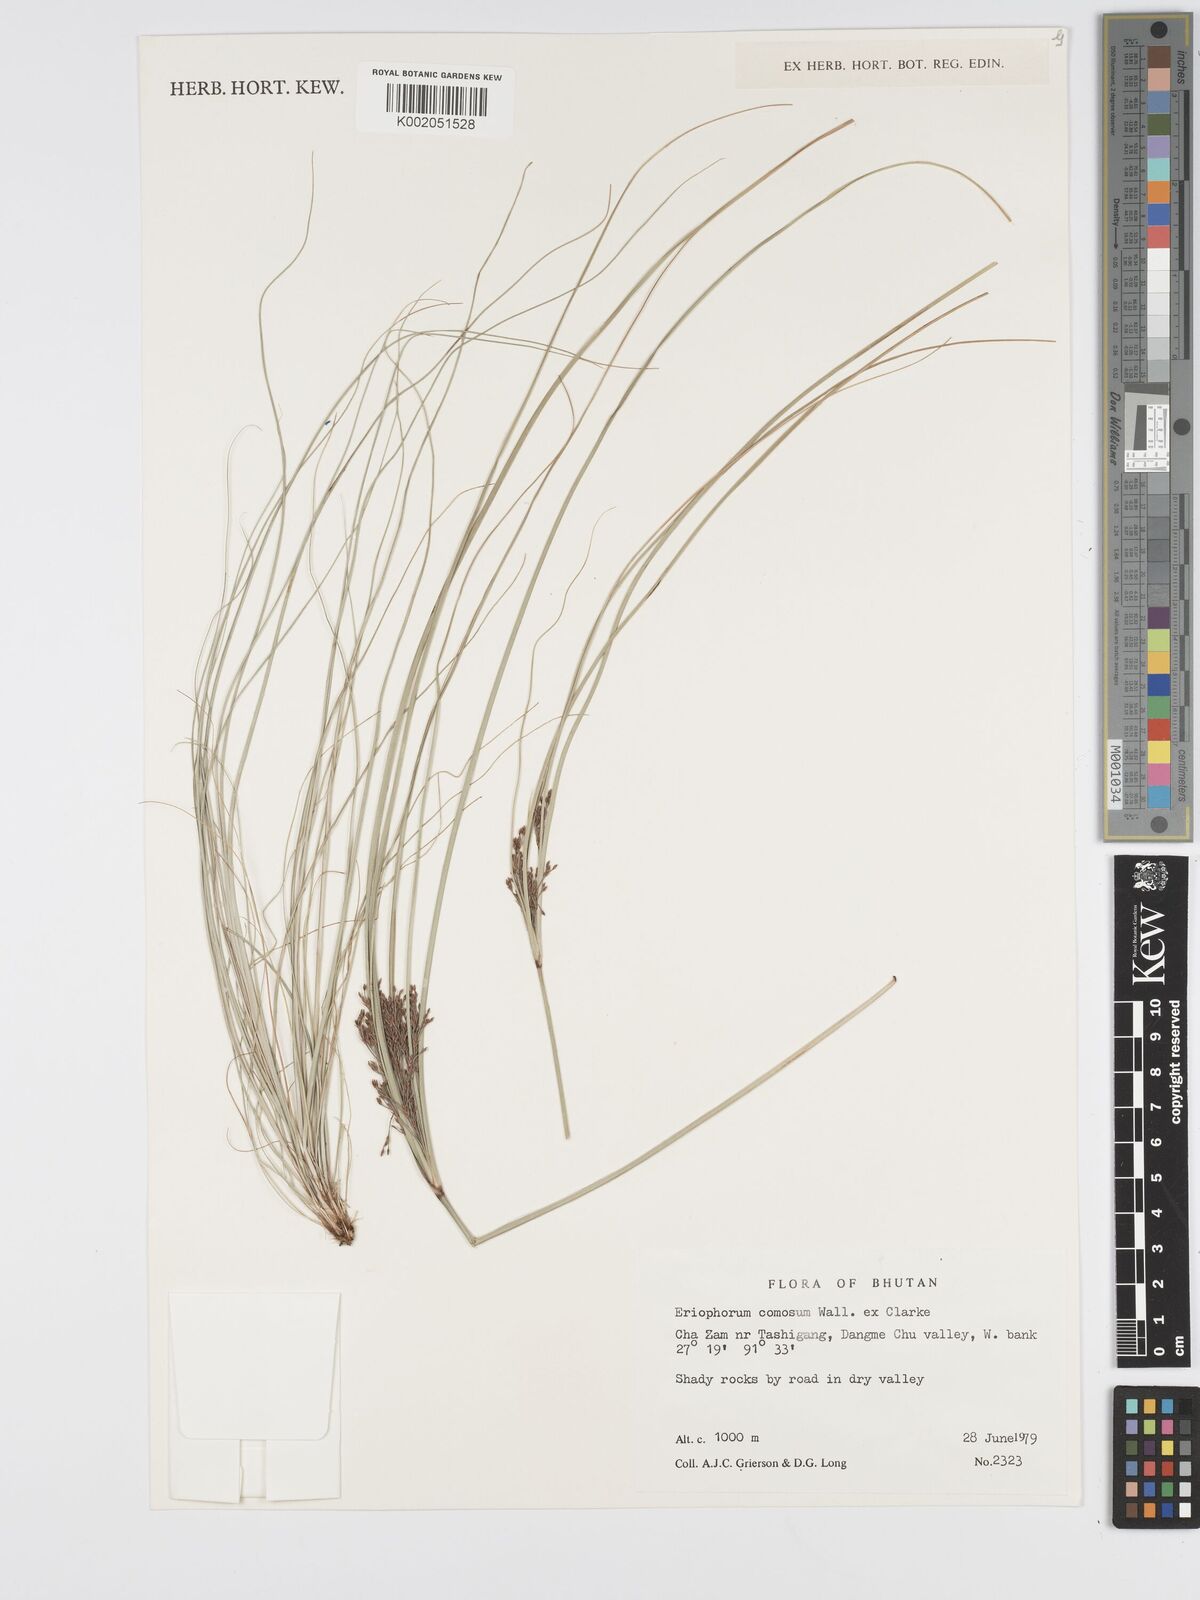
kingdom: Plantae
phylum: Tracheophyta
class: Liliopsida
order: Poales
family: Cyperaceae
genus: Erioscirpus
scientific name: Erioscirpus comosus
